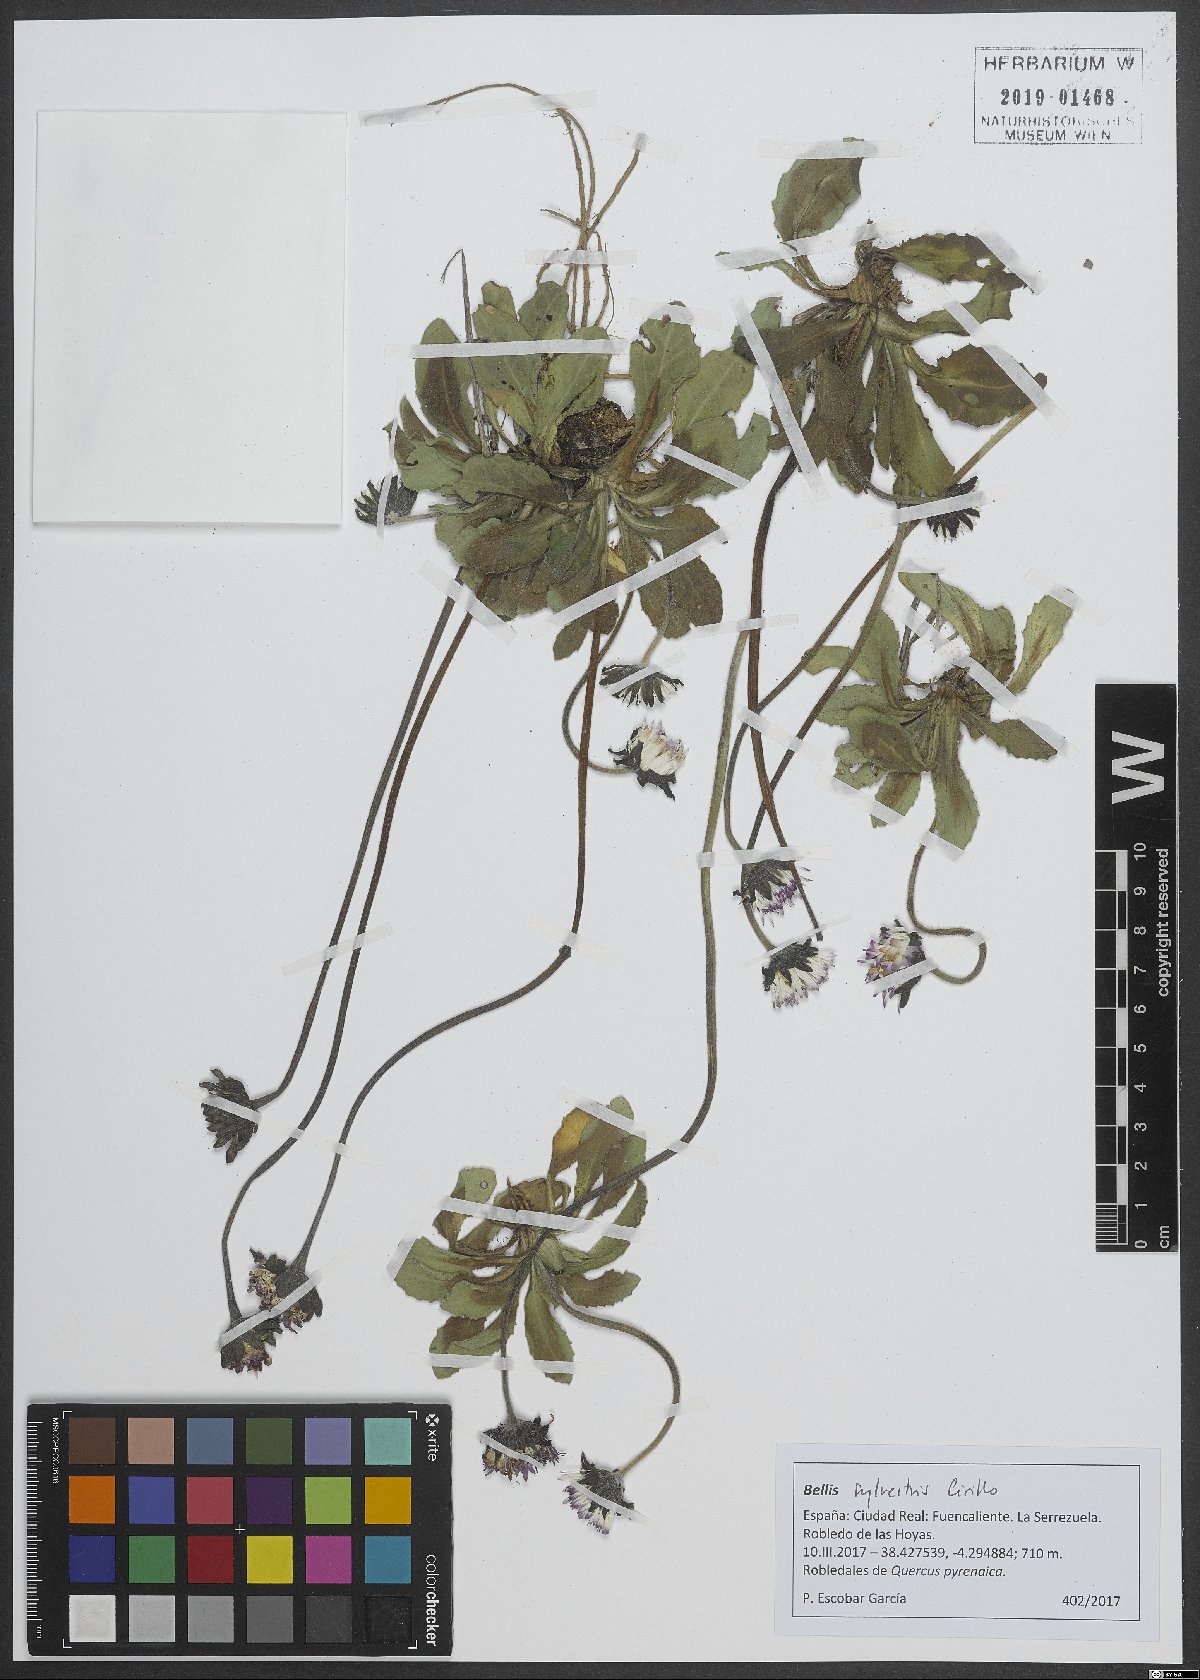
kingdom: Plantae
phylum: Tracheophyta
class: Magnoliopsida
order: Asterales
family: Asteraceae
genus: Bellis
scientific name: Bellis sylvestris
